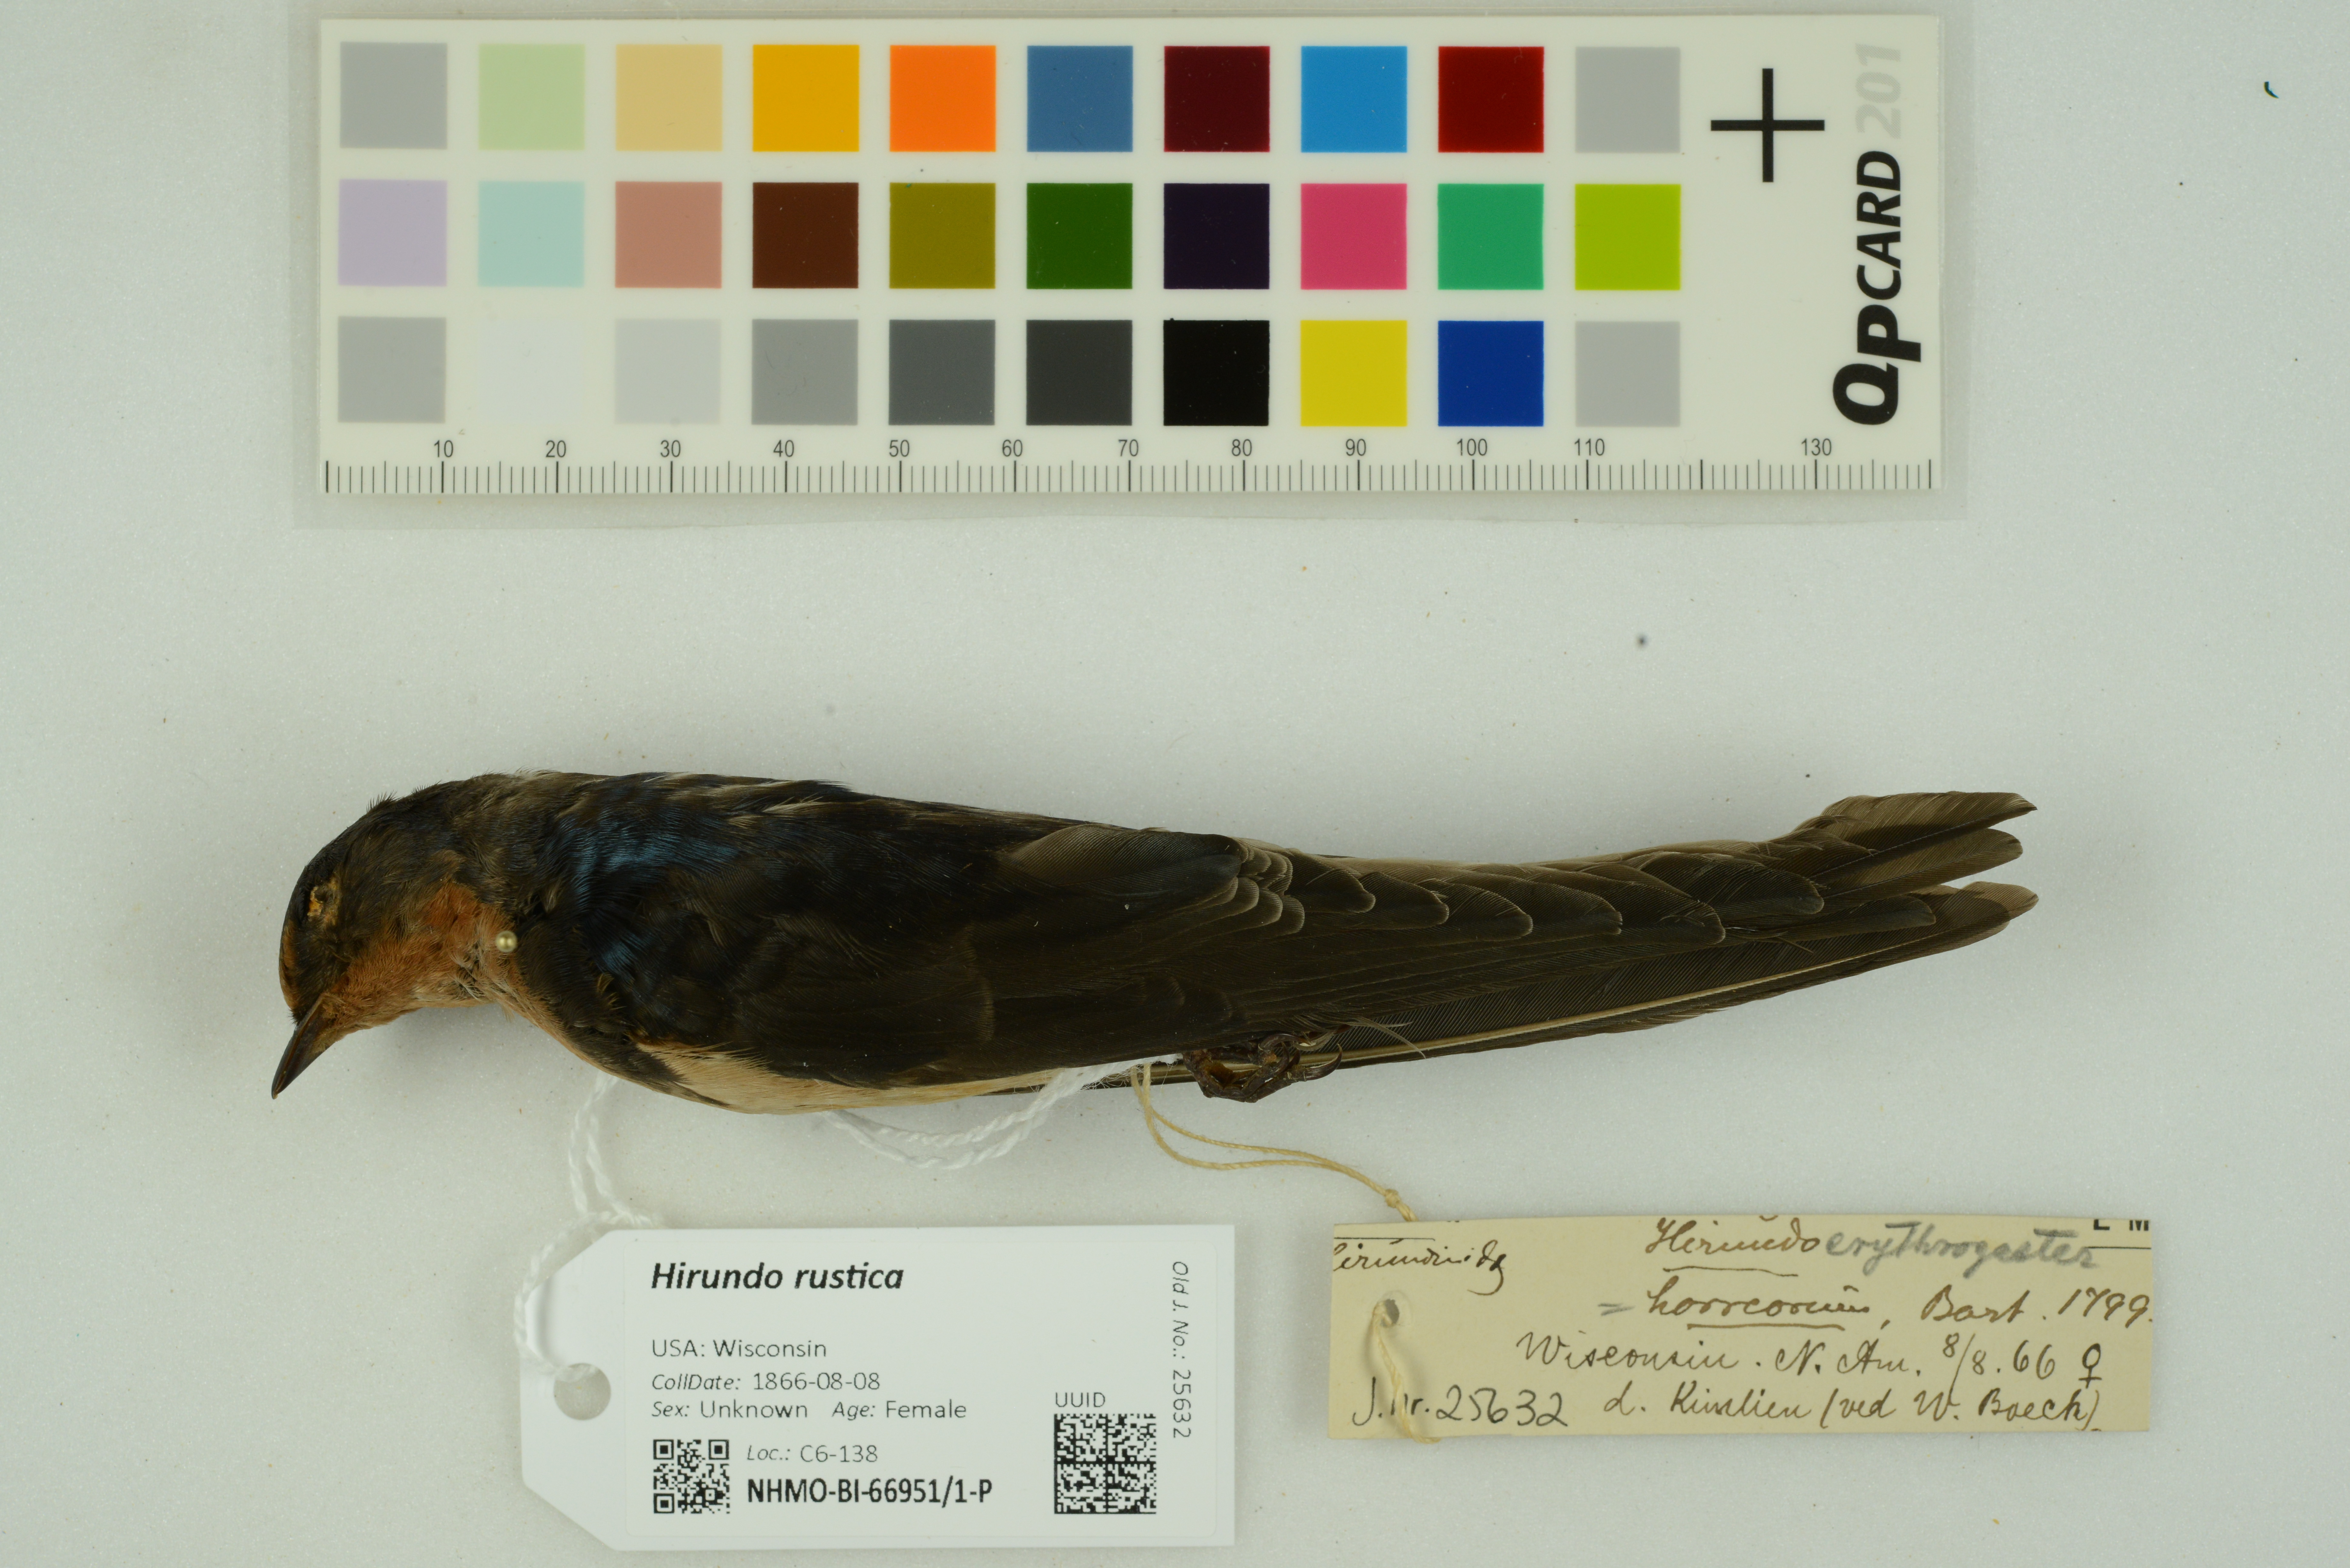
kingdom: Animalia
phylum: Chordata
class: Aves
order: Passeriformes
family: Hirundinidae
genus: Hirundo
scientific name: Hirundo rustica
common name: Barn swallow
